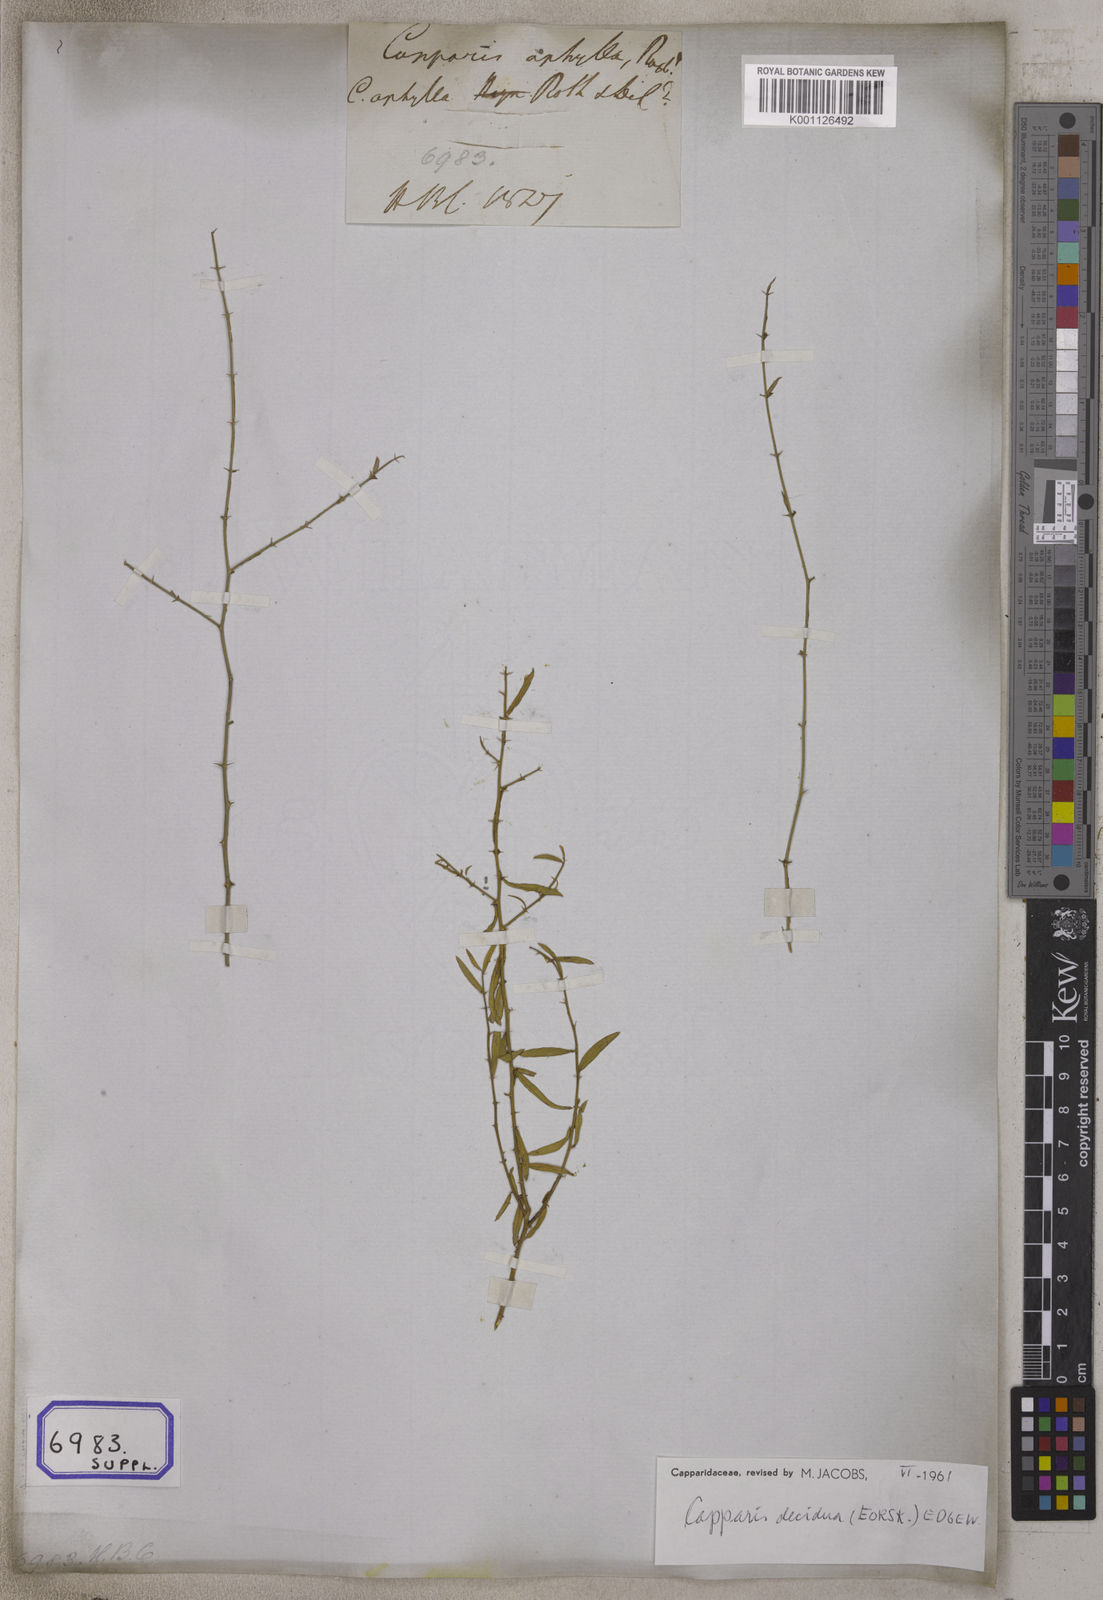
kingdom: Plantae
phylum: Tracheophyta
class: Magnoliopsida
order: Brassicales
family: Capparaceae
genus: Capparis
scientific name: Capparis decidua
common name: Sodada
